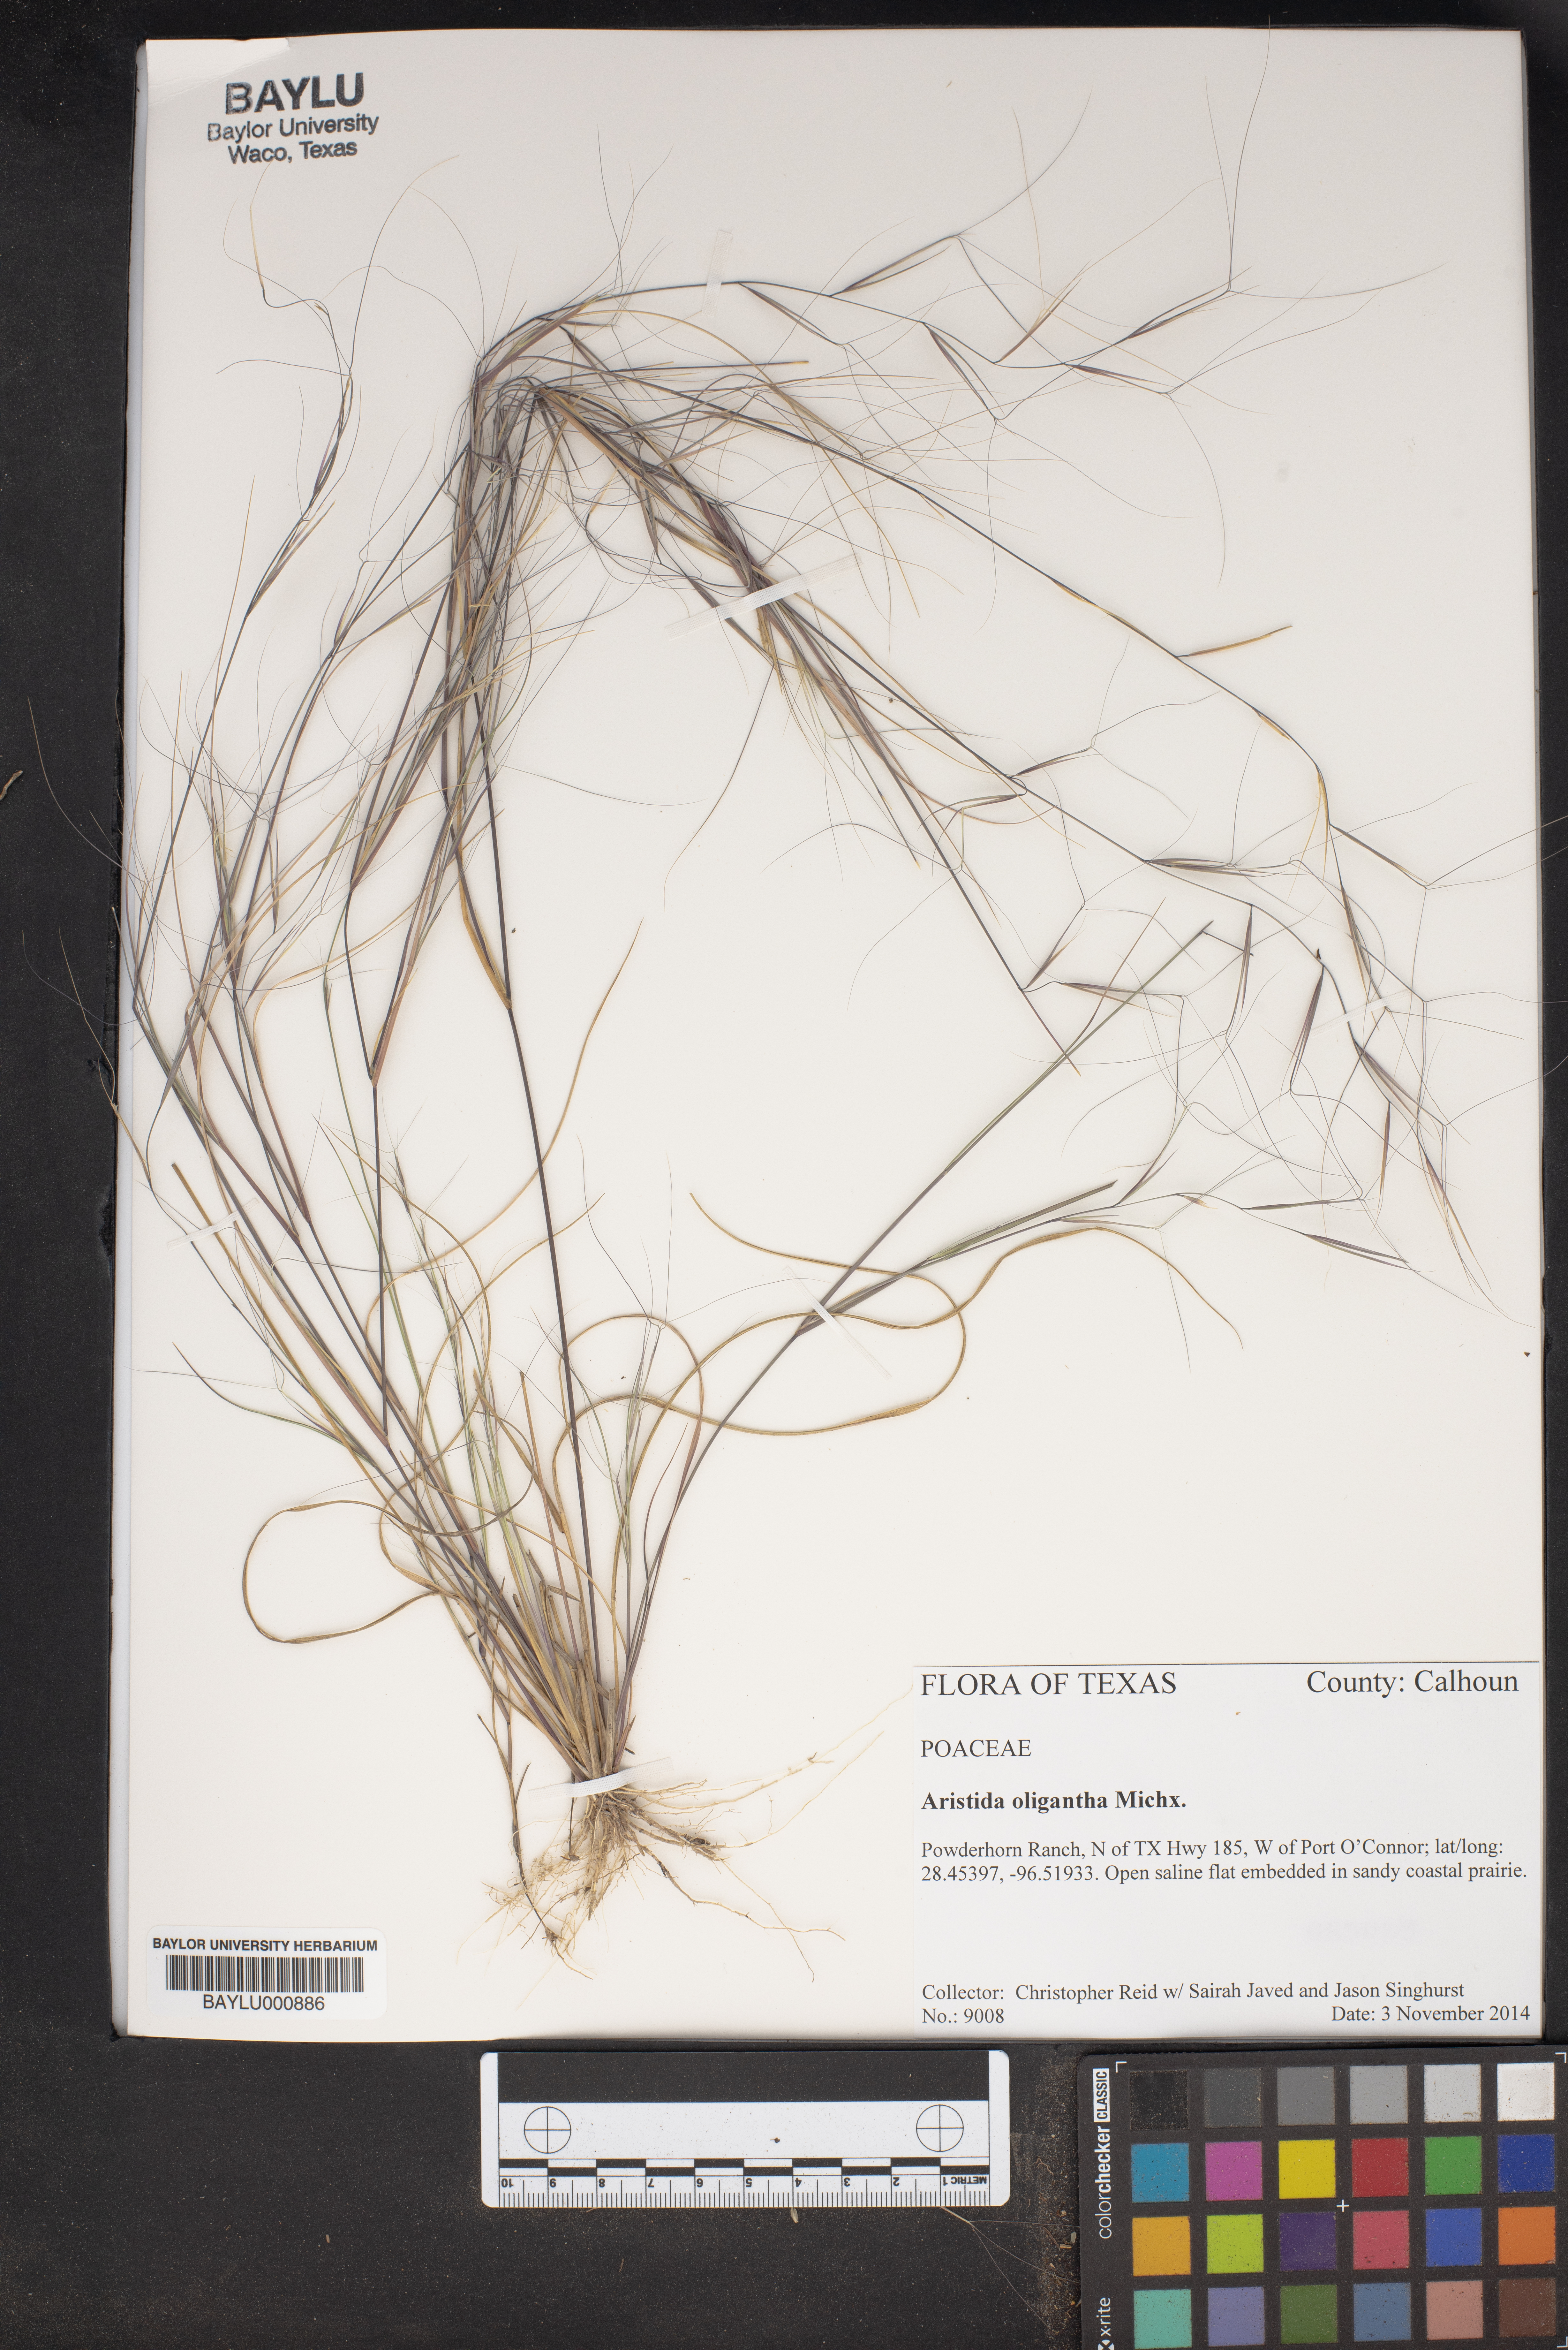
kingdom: Plantae
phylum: Tracheophyta
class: Liliopsida
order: Poales
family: Poaceae
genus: Aristida
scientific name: Aristida oligantha
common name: Few-flowered aristida
